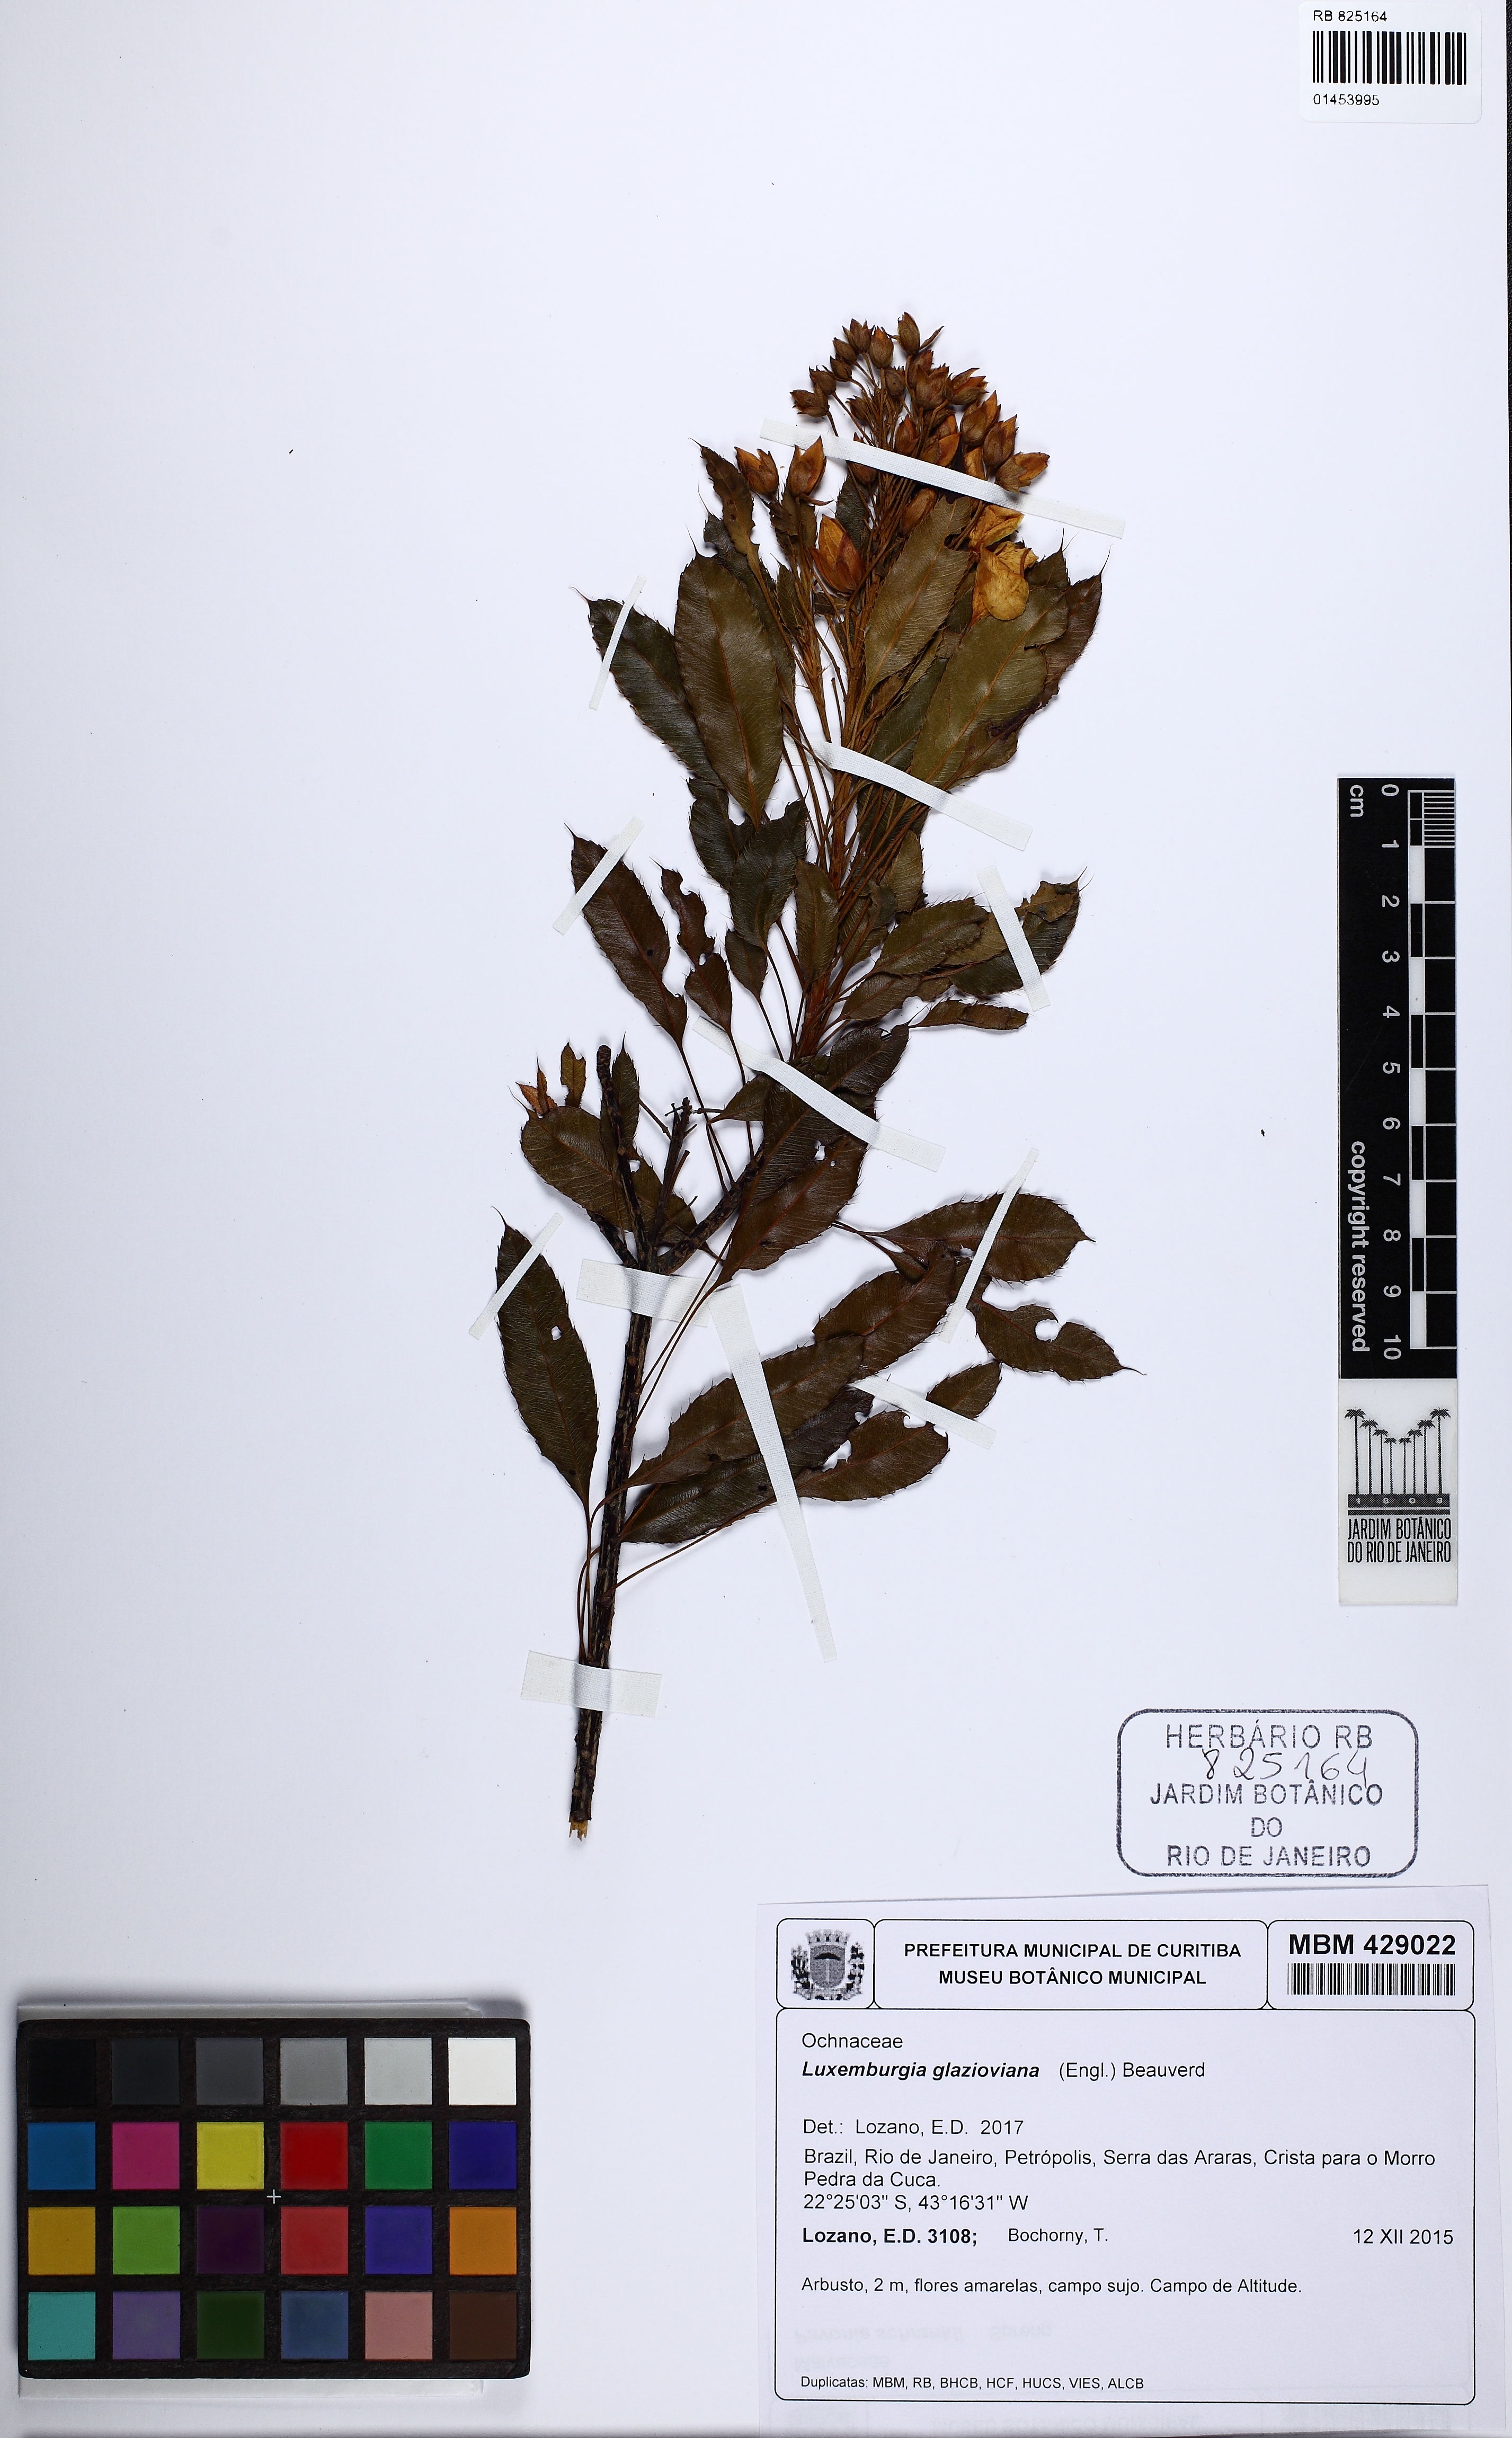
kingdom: Plantae
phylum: Tracheophyta
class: Magnoliopsida
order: Malpighiales
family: Ochnaceae
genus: Luxemburgia
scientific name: Luxemburgia glazioviana
